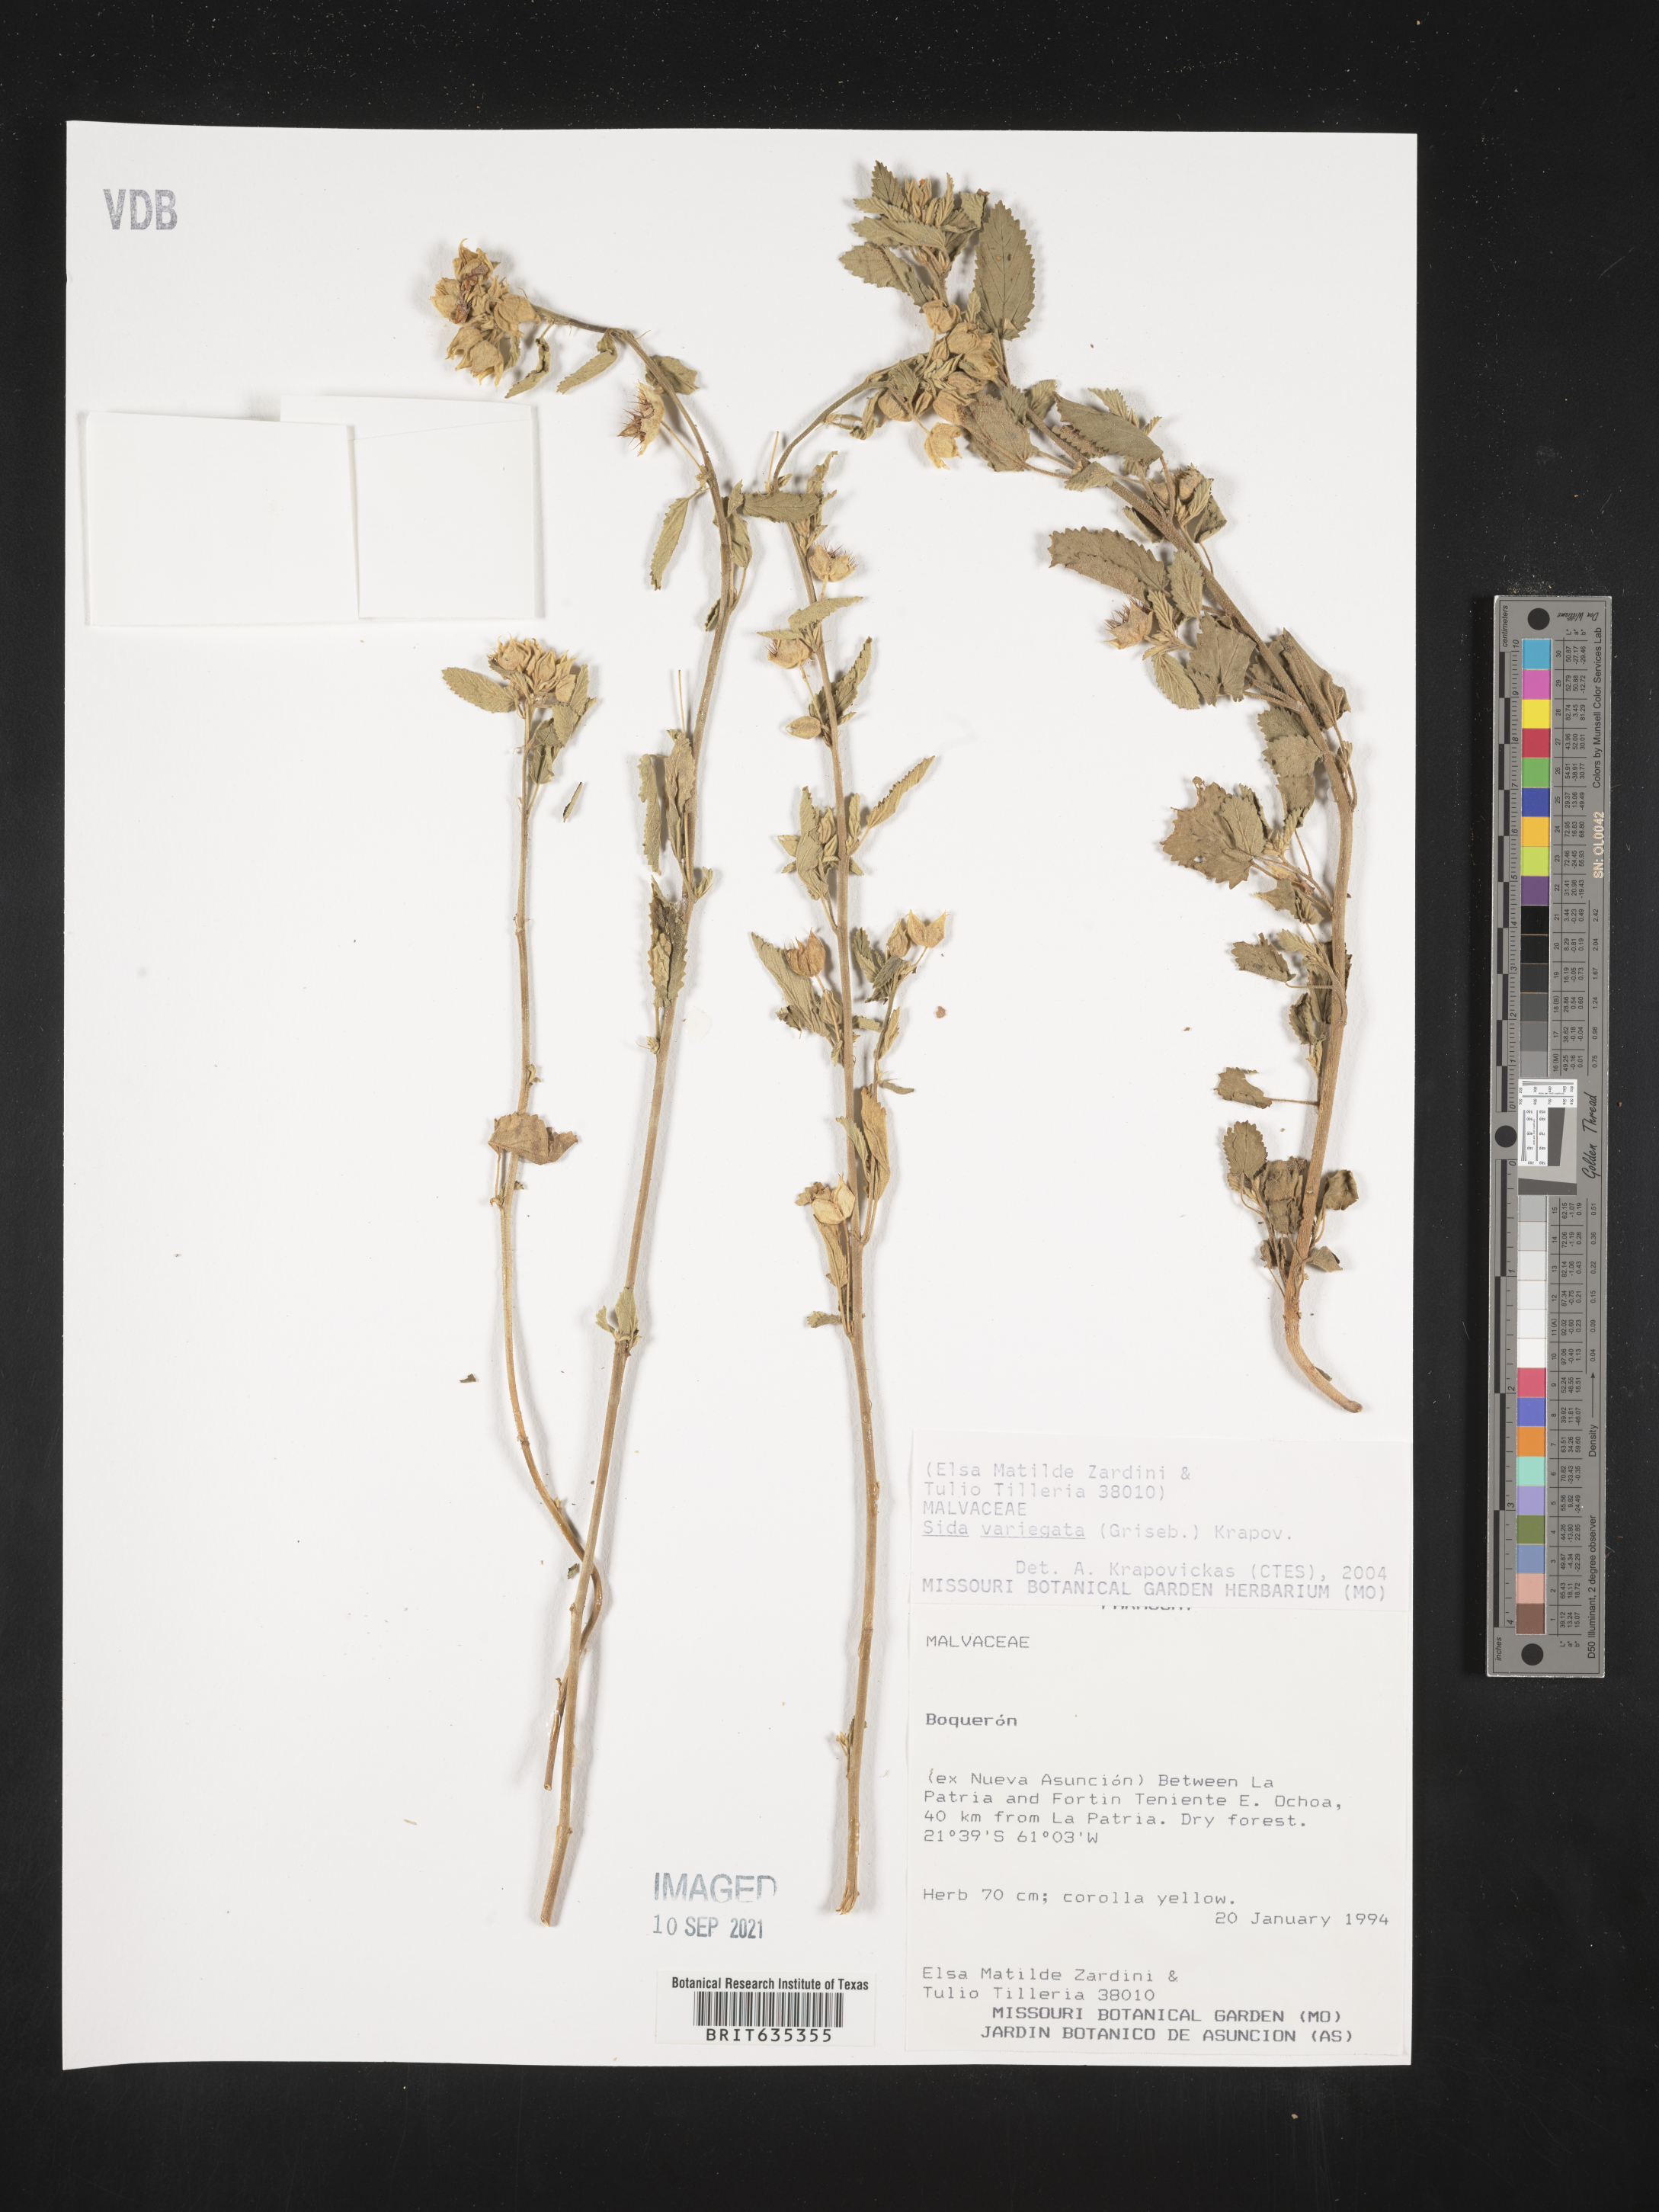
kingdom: Plantae
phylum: Tracheophyta
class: Magnoliopsida
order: Malvales
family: Malvaceae
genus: Sida
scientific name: Sida
